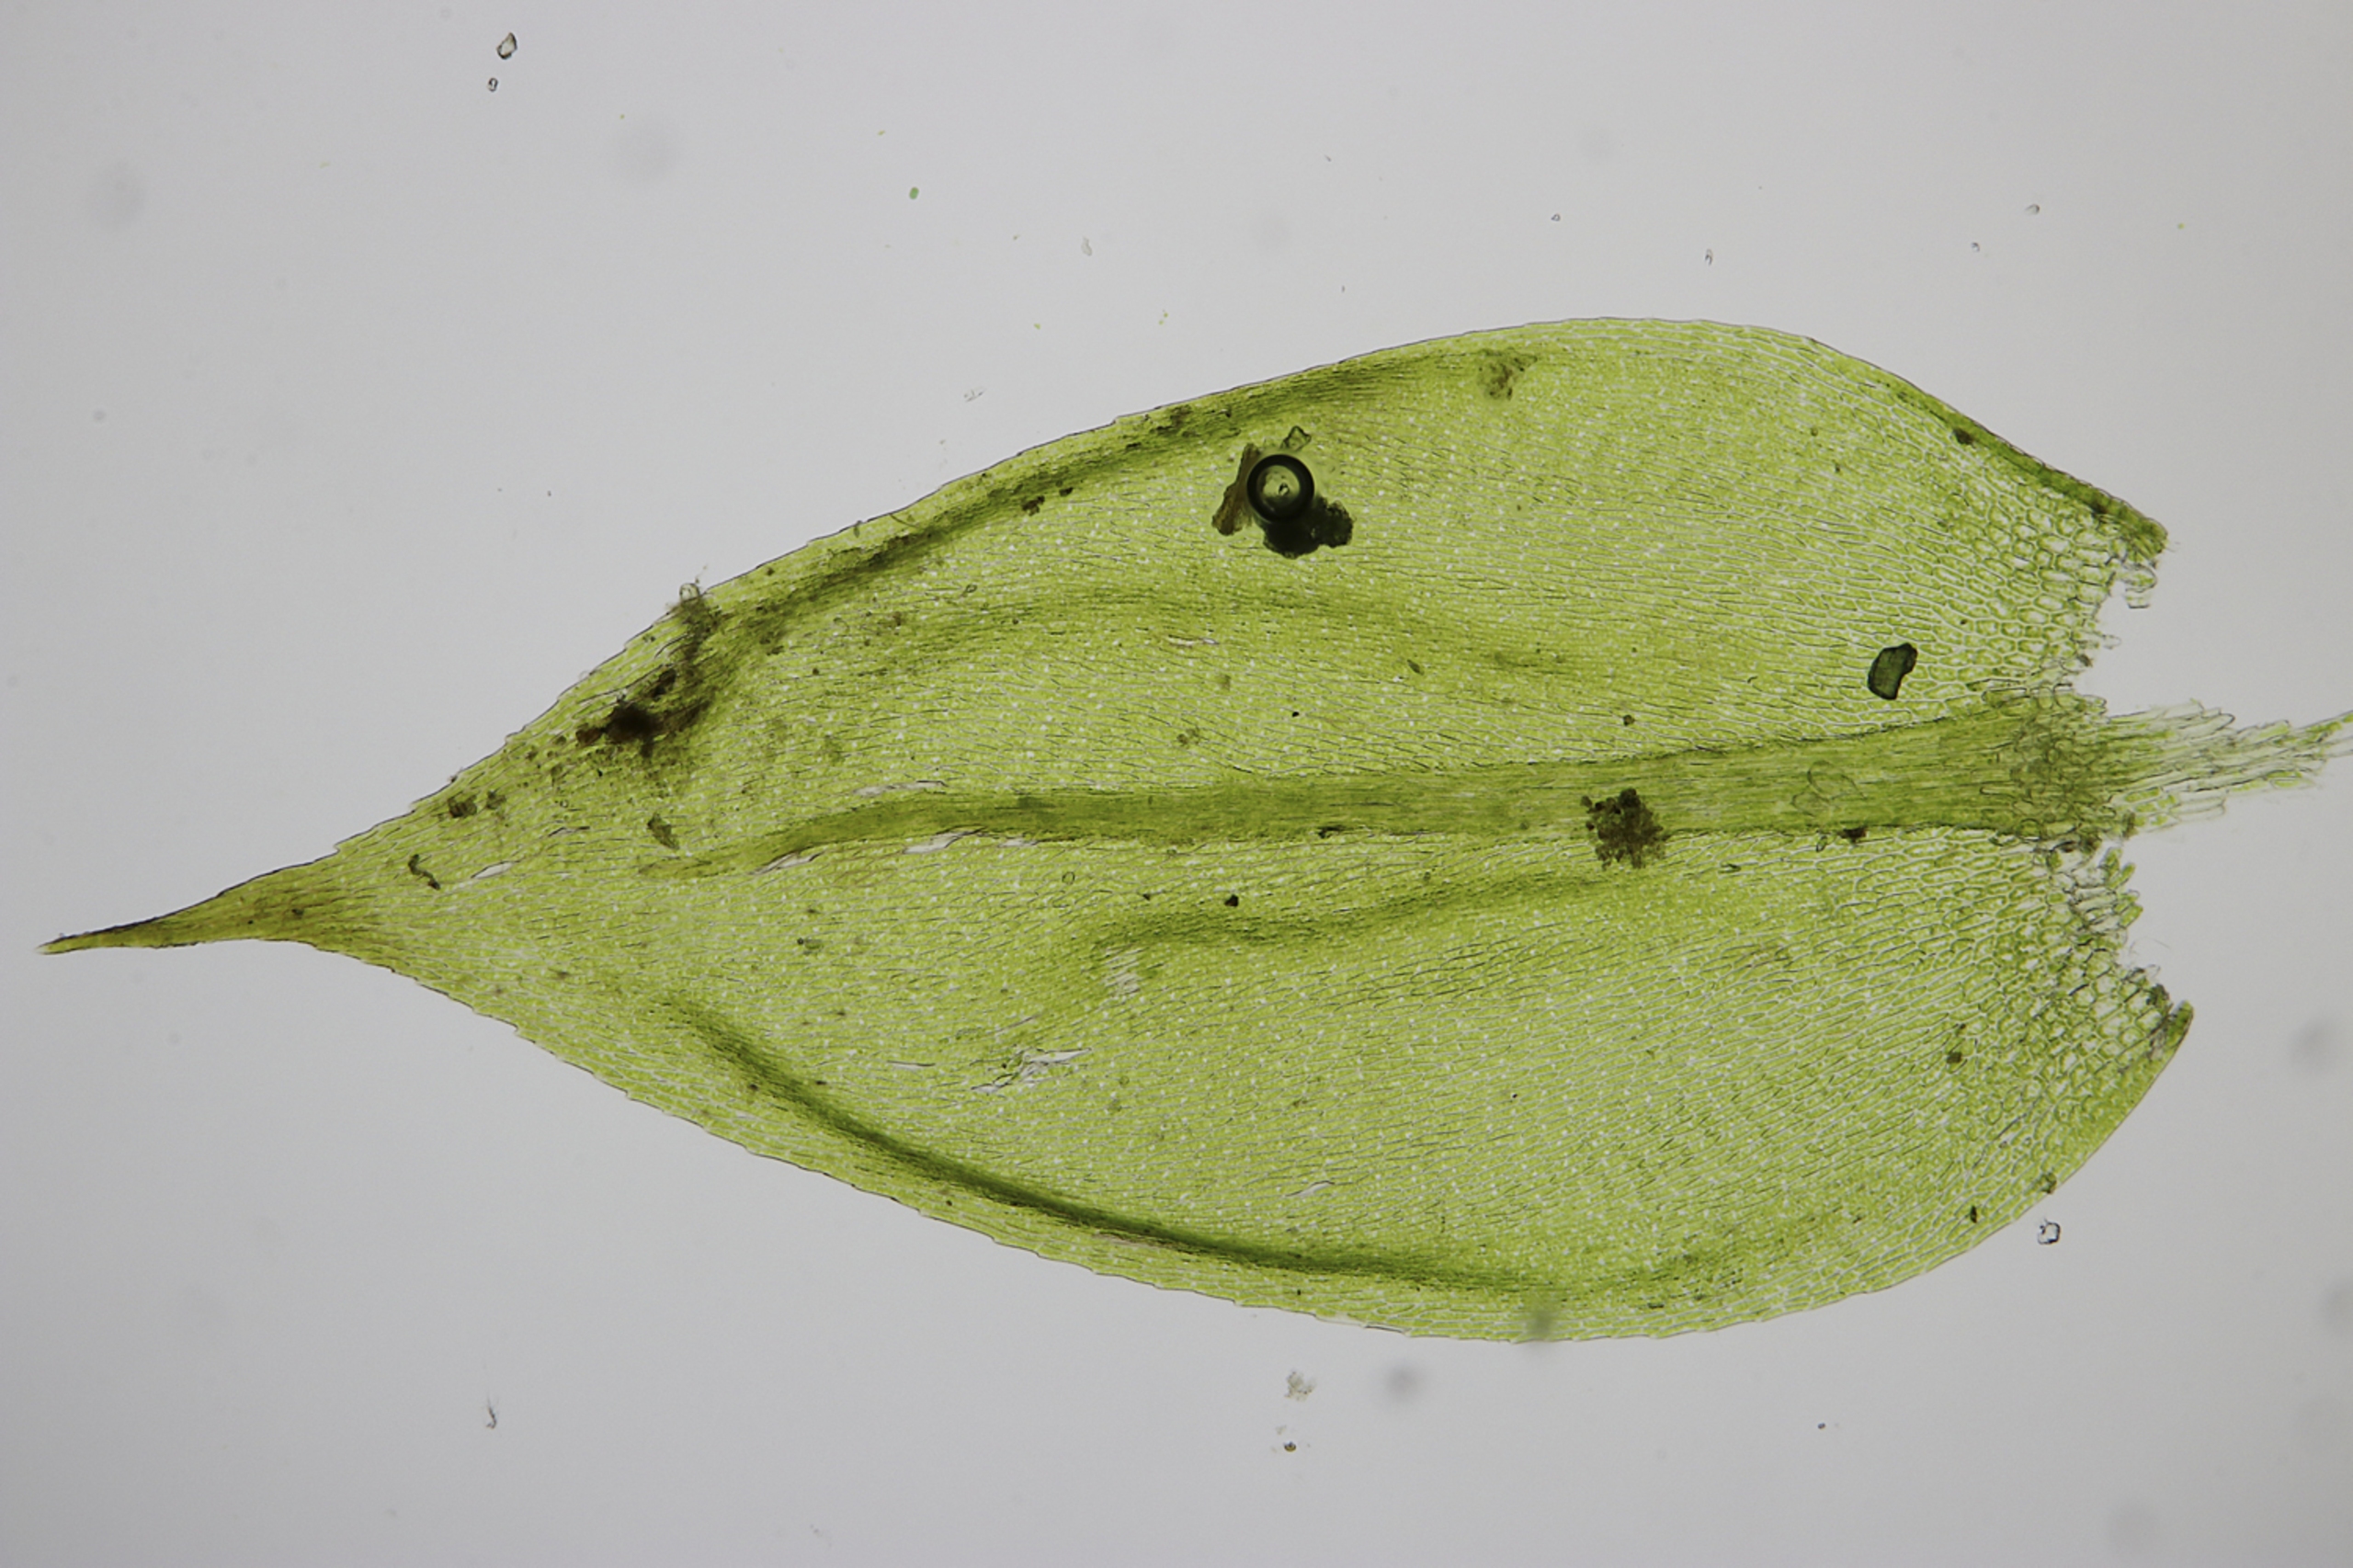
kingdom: Plantae
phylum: Bryophyta
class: Bryopsida
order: Hypnales
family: Brachytheciaceae
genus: Cirriphyllum
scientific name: Cirriphyllum crassinervium
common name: Tæt penselmos
